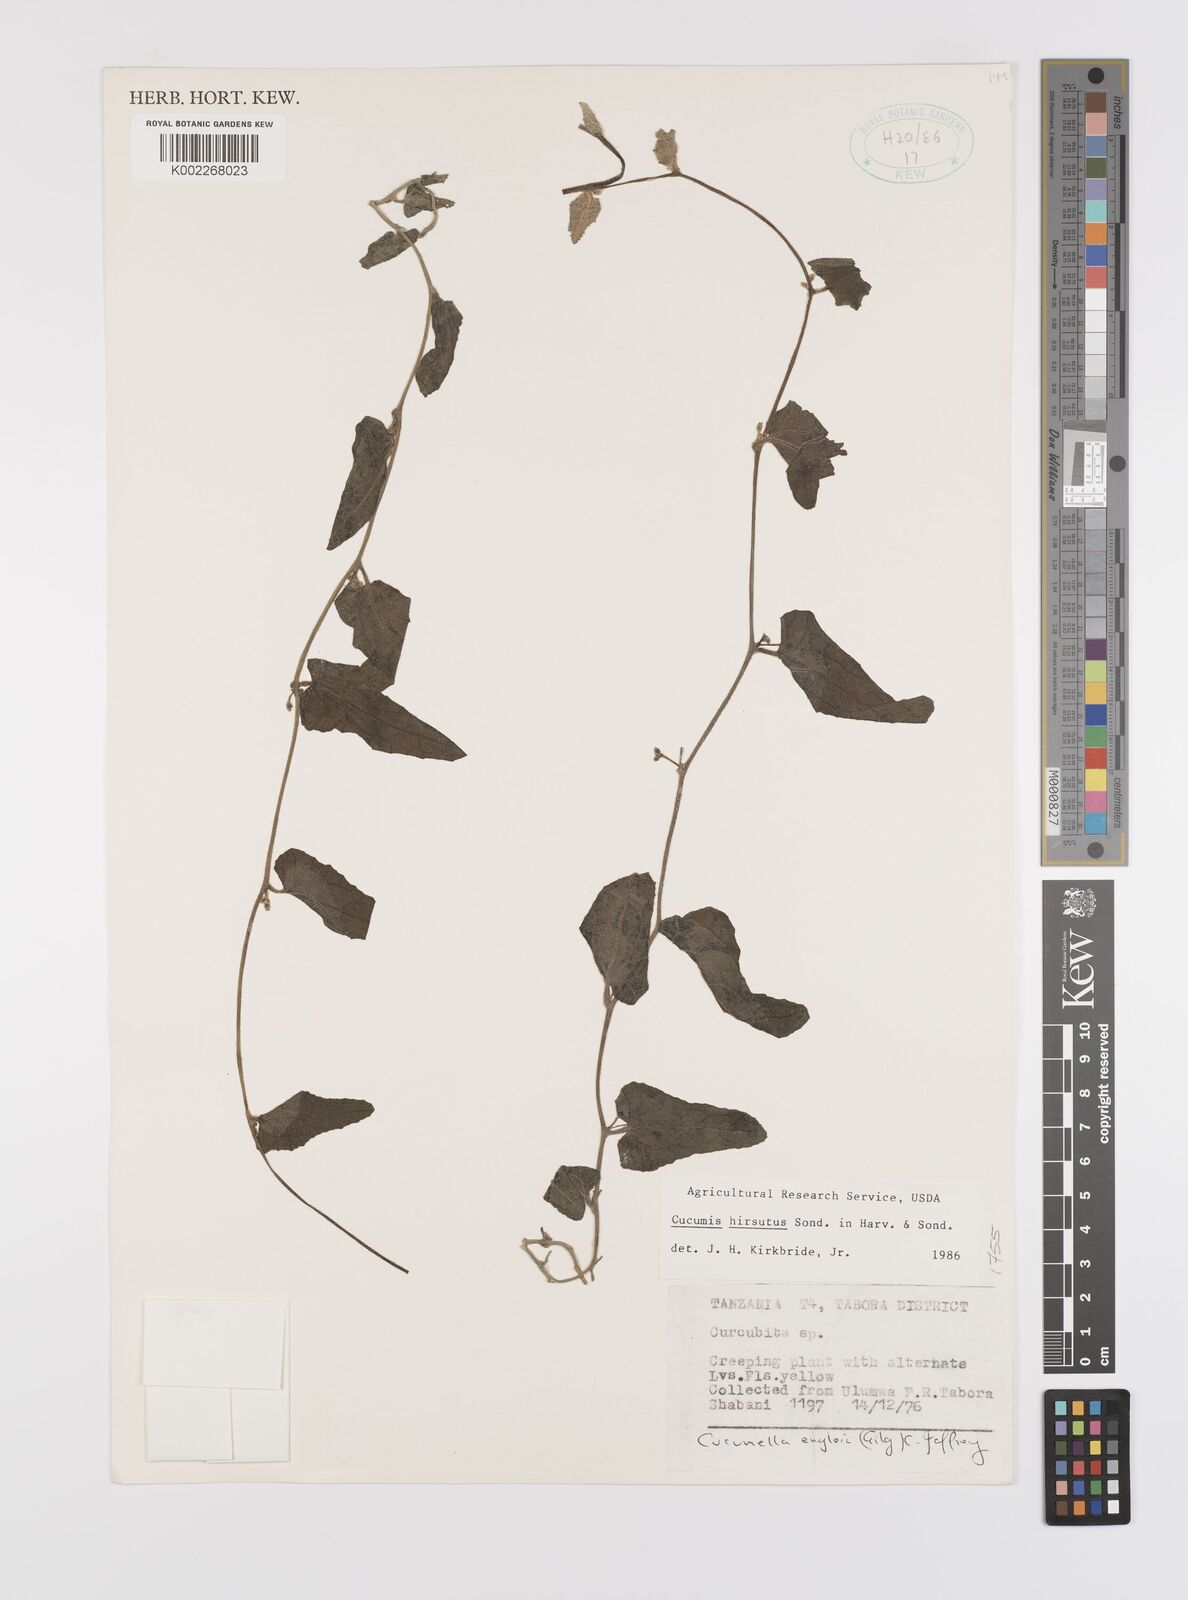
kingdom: Plantae
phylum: Tracheophyta
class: Magnoliopsida
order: Cucurbitales
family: Cucurbitaceae
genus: Cucumis
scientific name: Cucumis hirsutus
